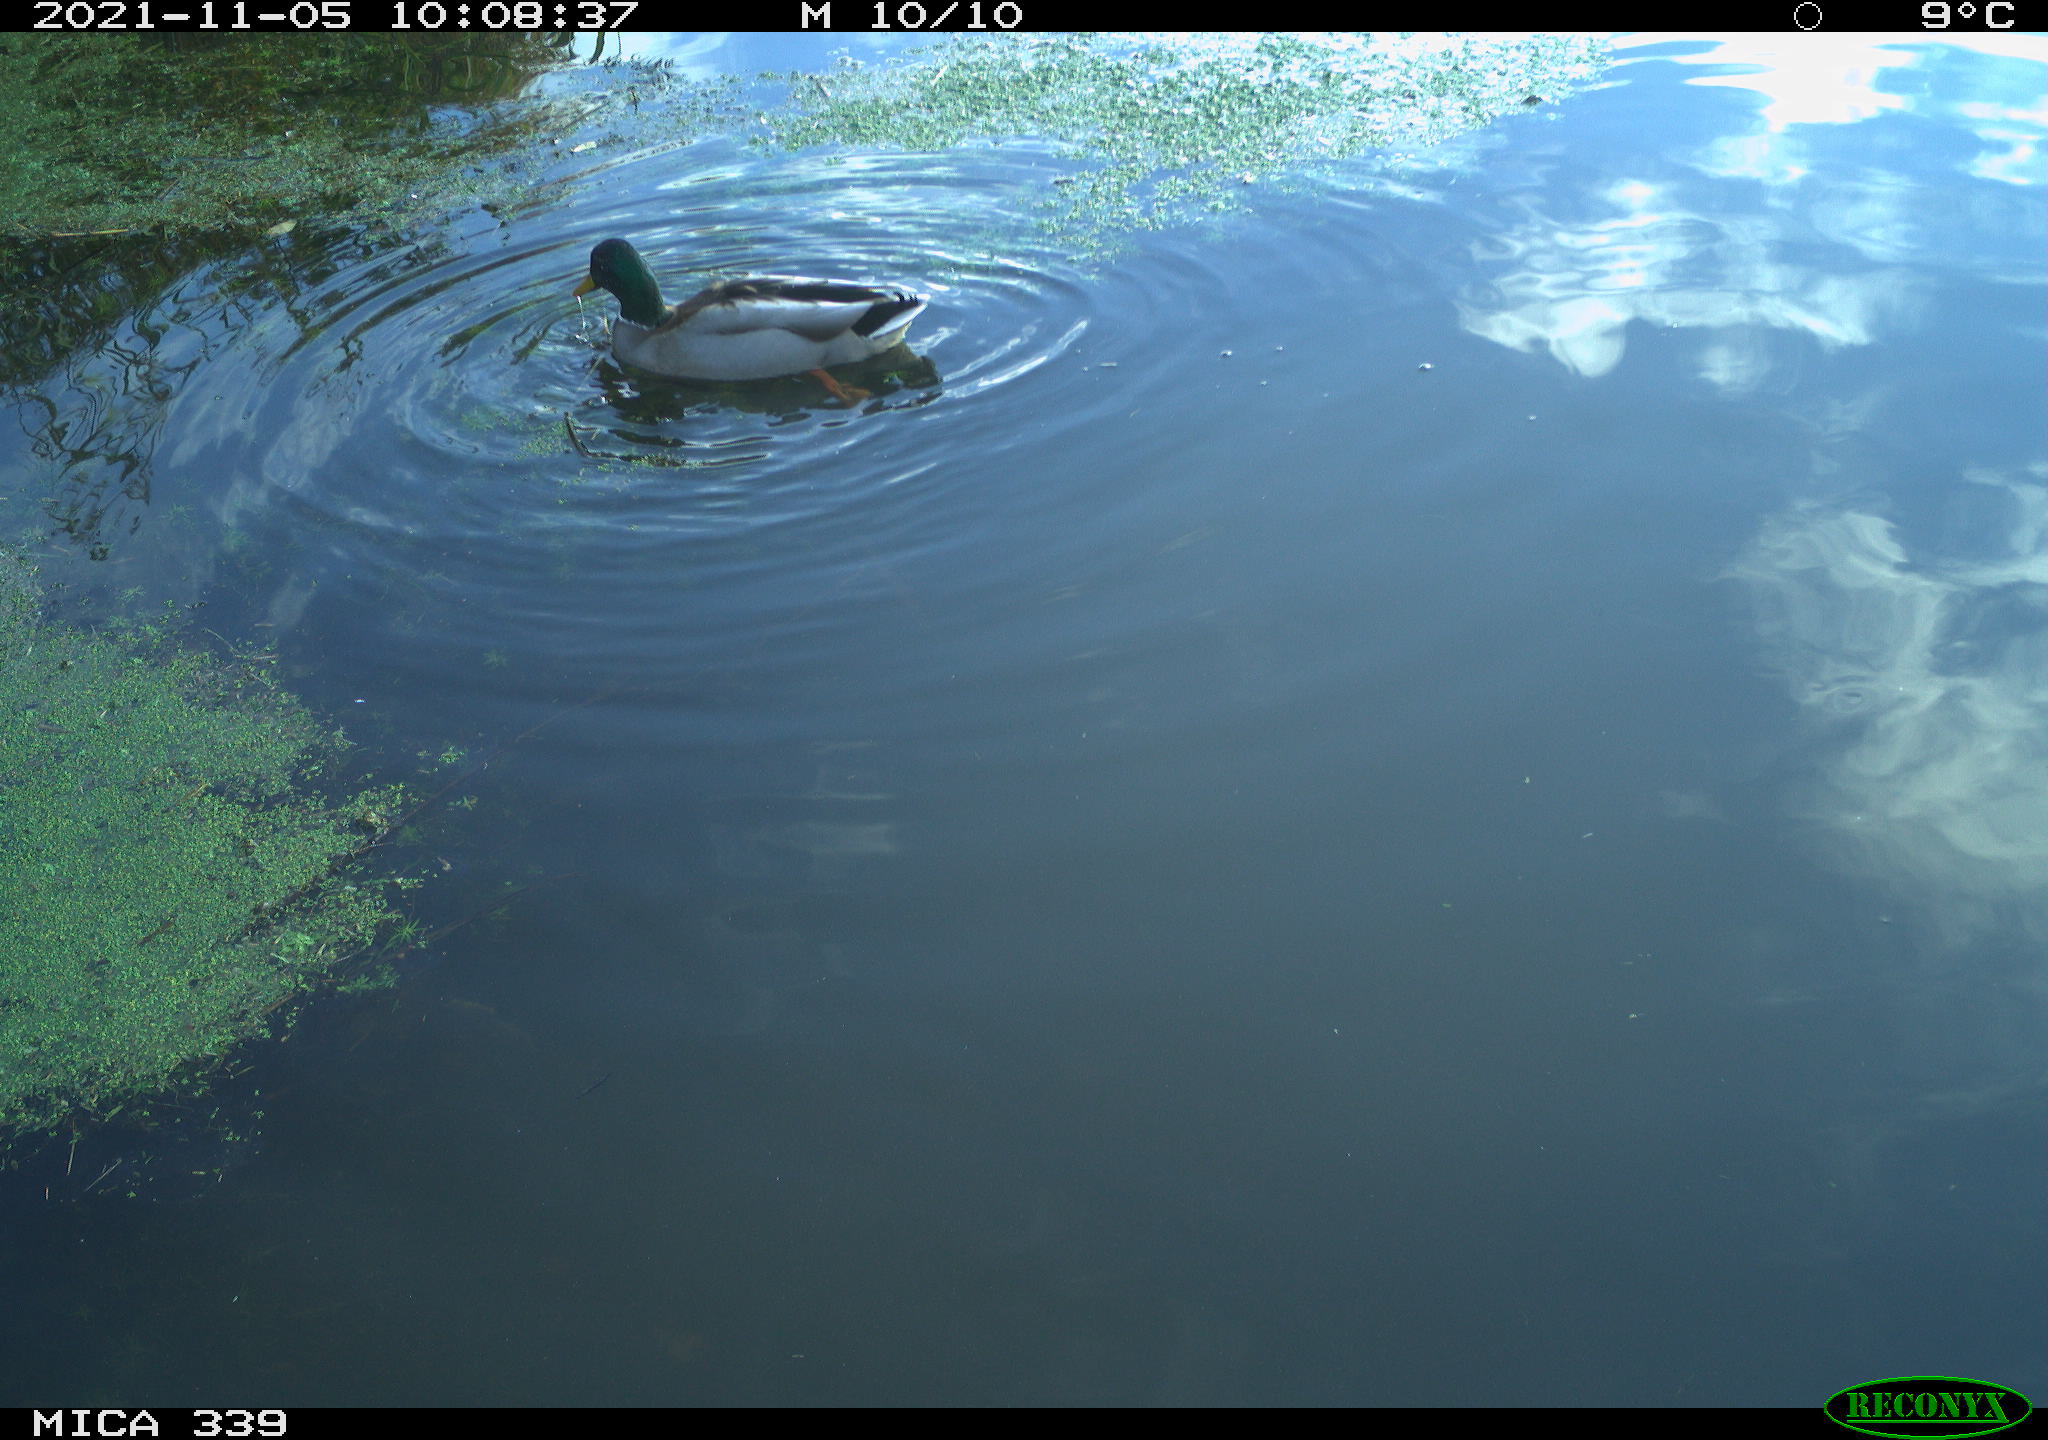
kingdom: Animalia
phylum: Chordata
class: Aves
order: Anseriformes
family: Anatidae
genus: Anas
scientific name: Anas platyrhynchos
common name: Mallard
